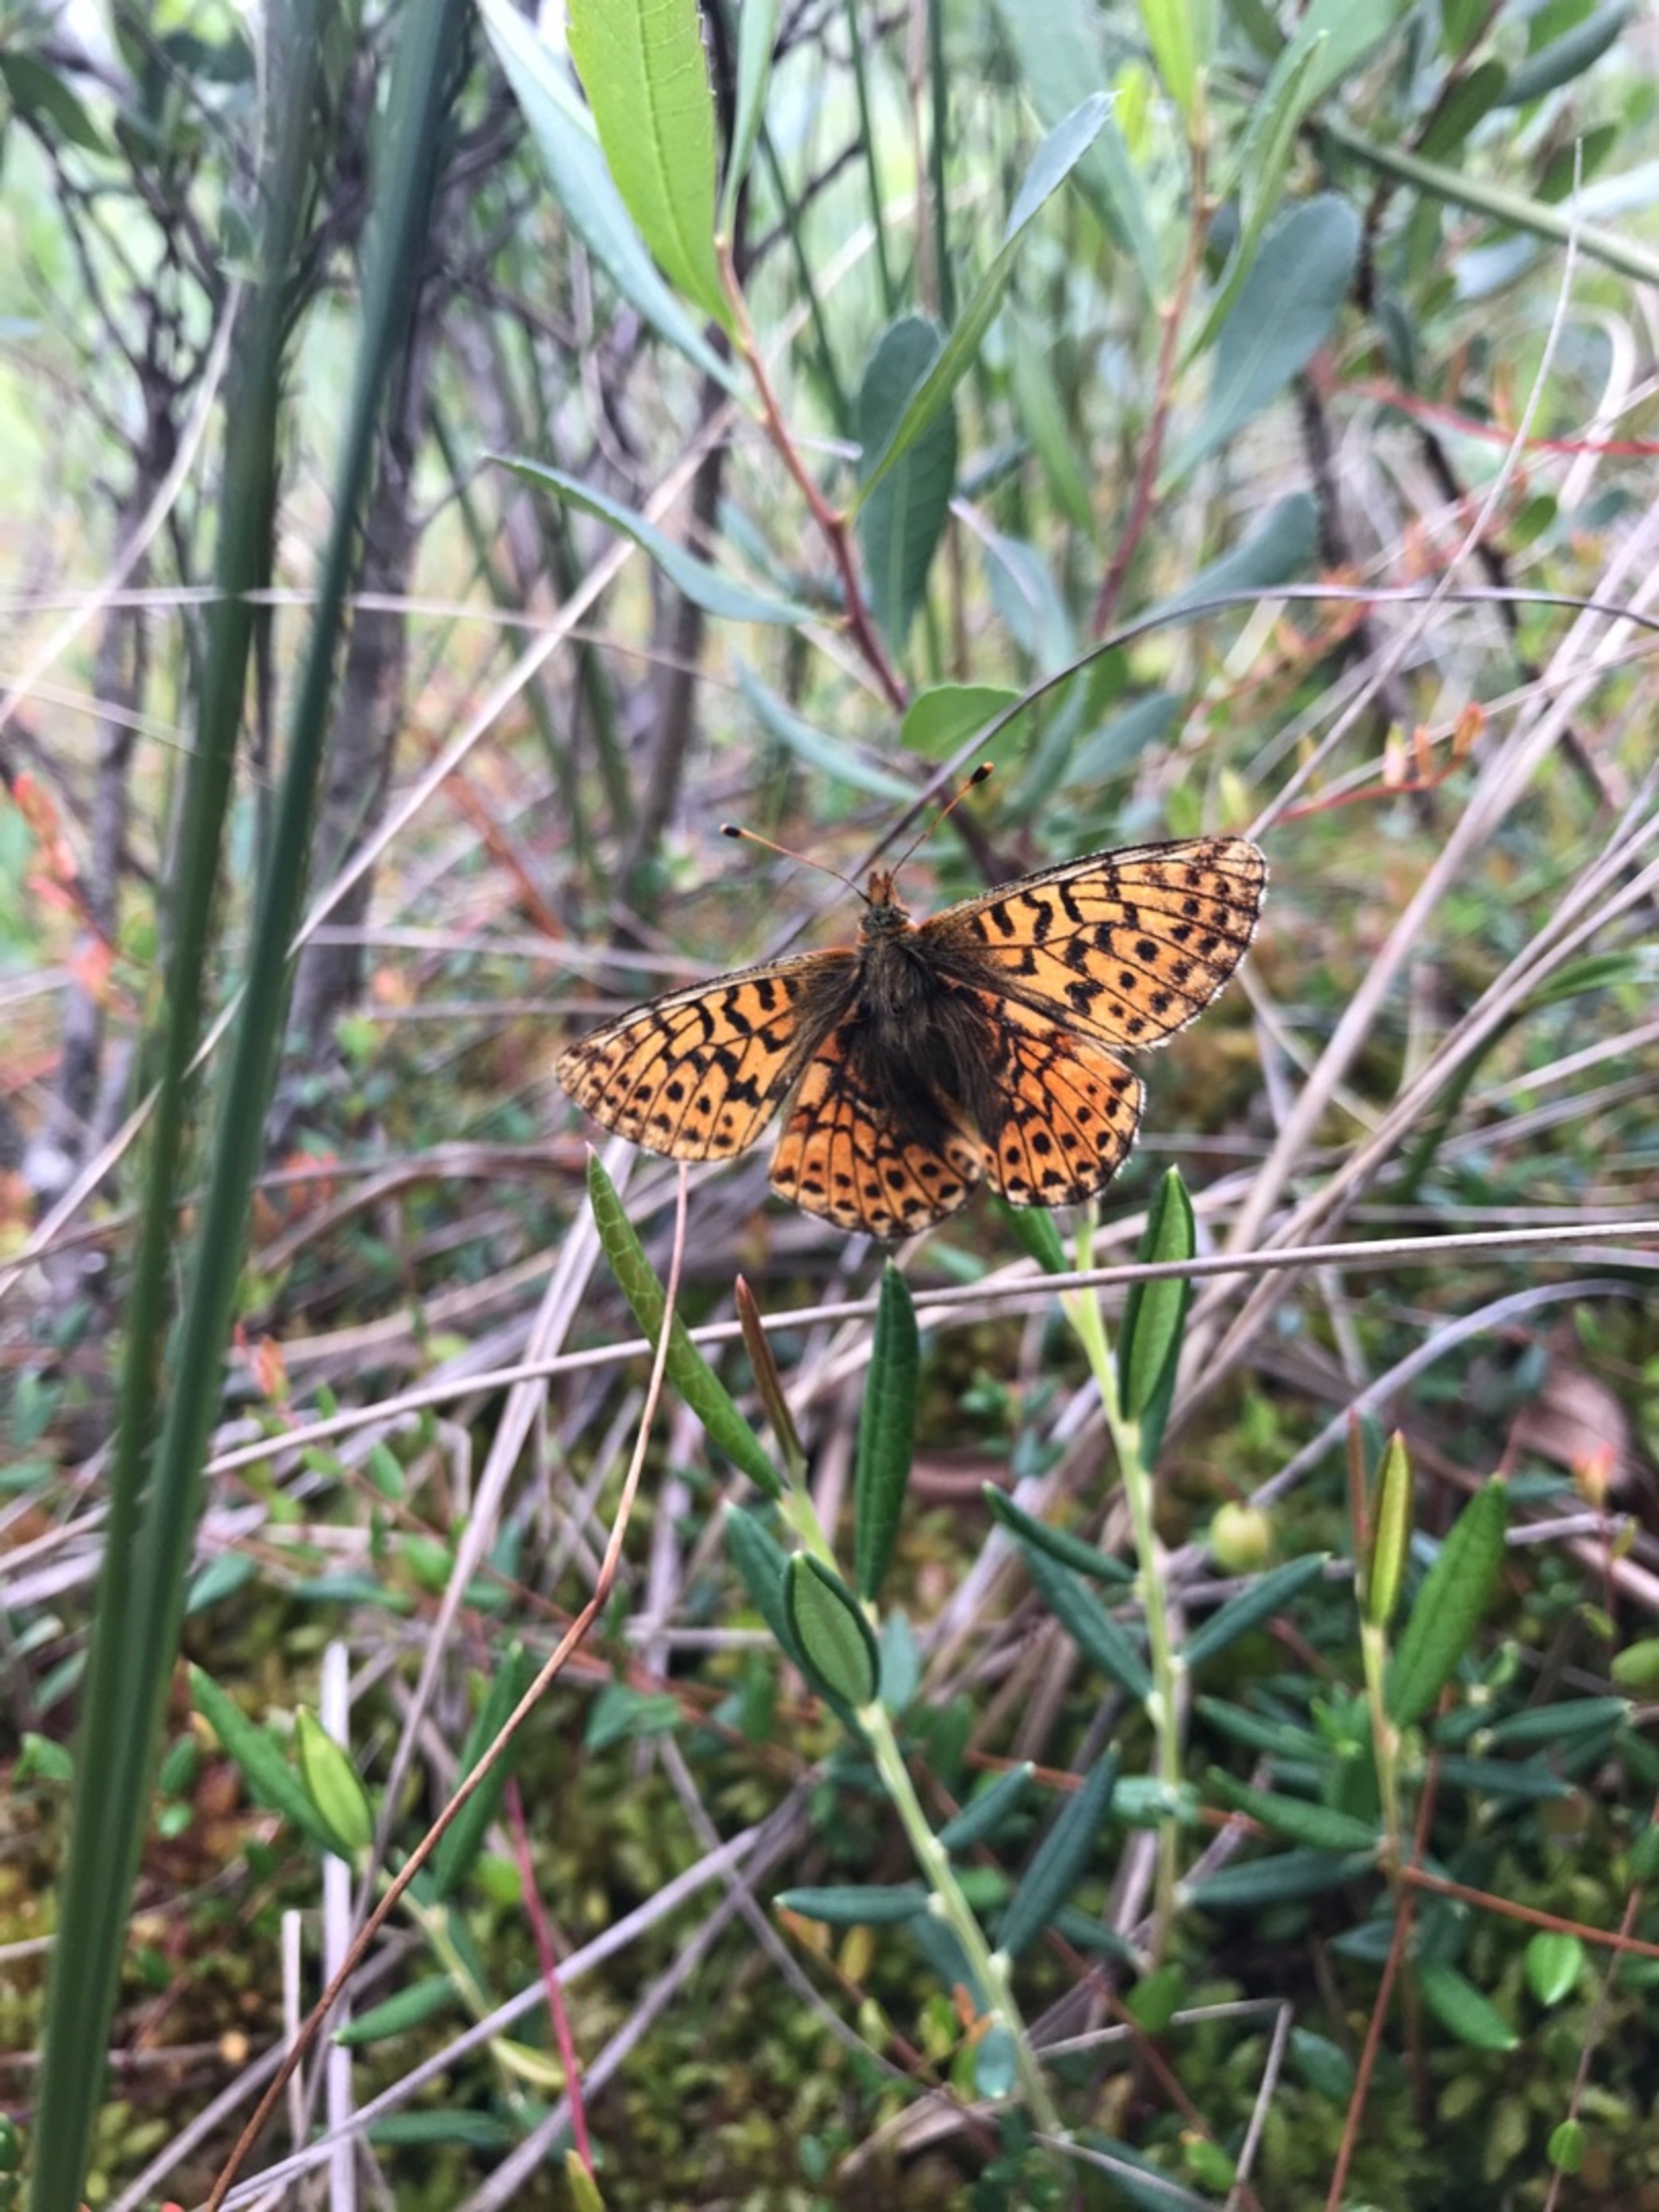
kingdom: Plantae
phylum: Tracheophyta
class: Magnoliopsida
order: Ericales
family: Ericaceae
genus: Andromeda
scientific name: Andromeda polifolia
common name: Rosmarinlyng
